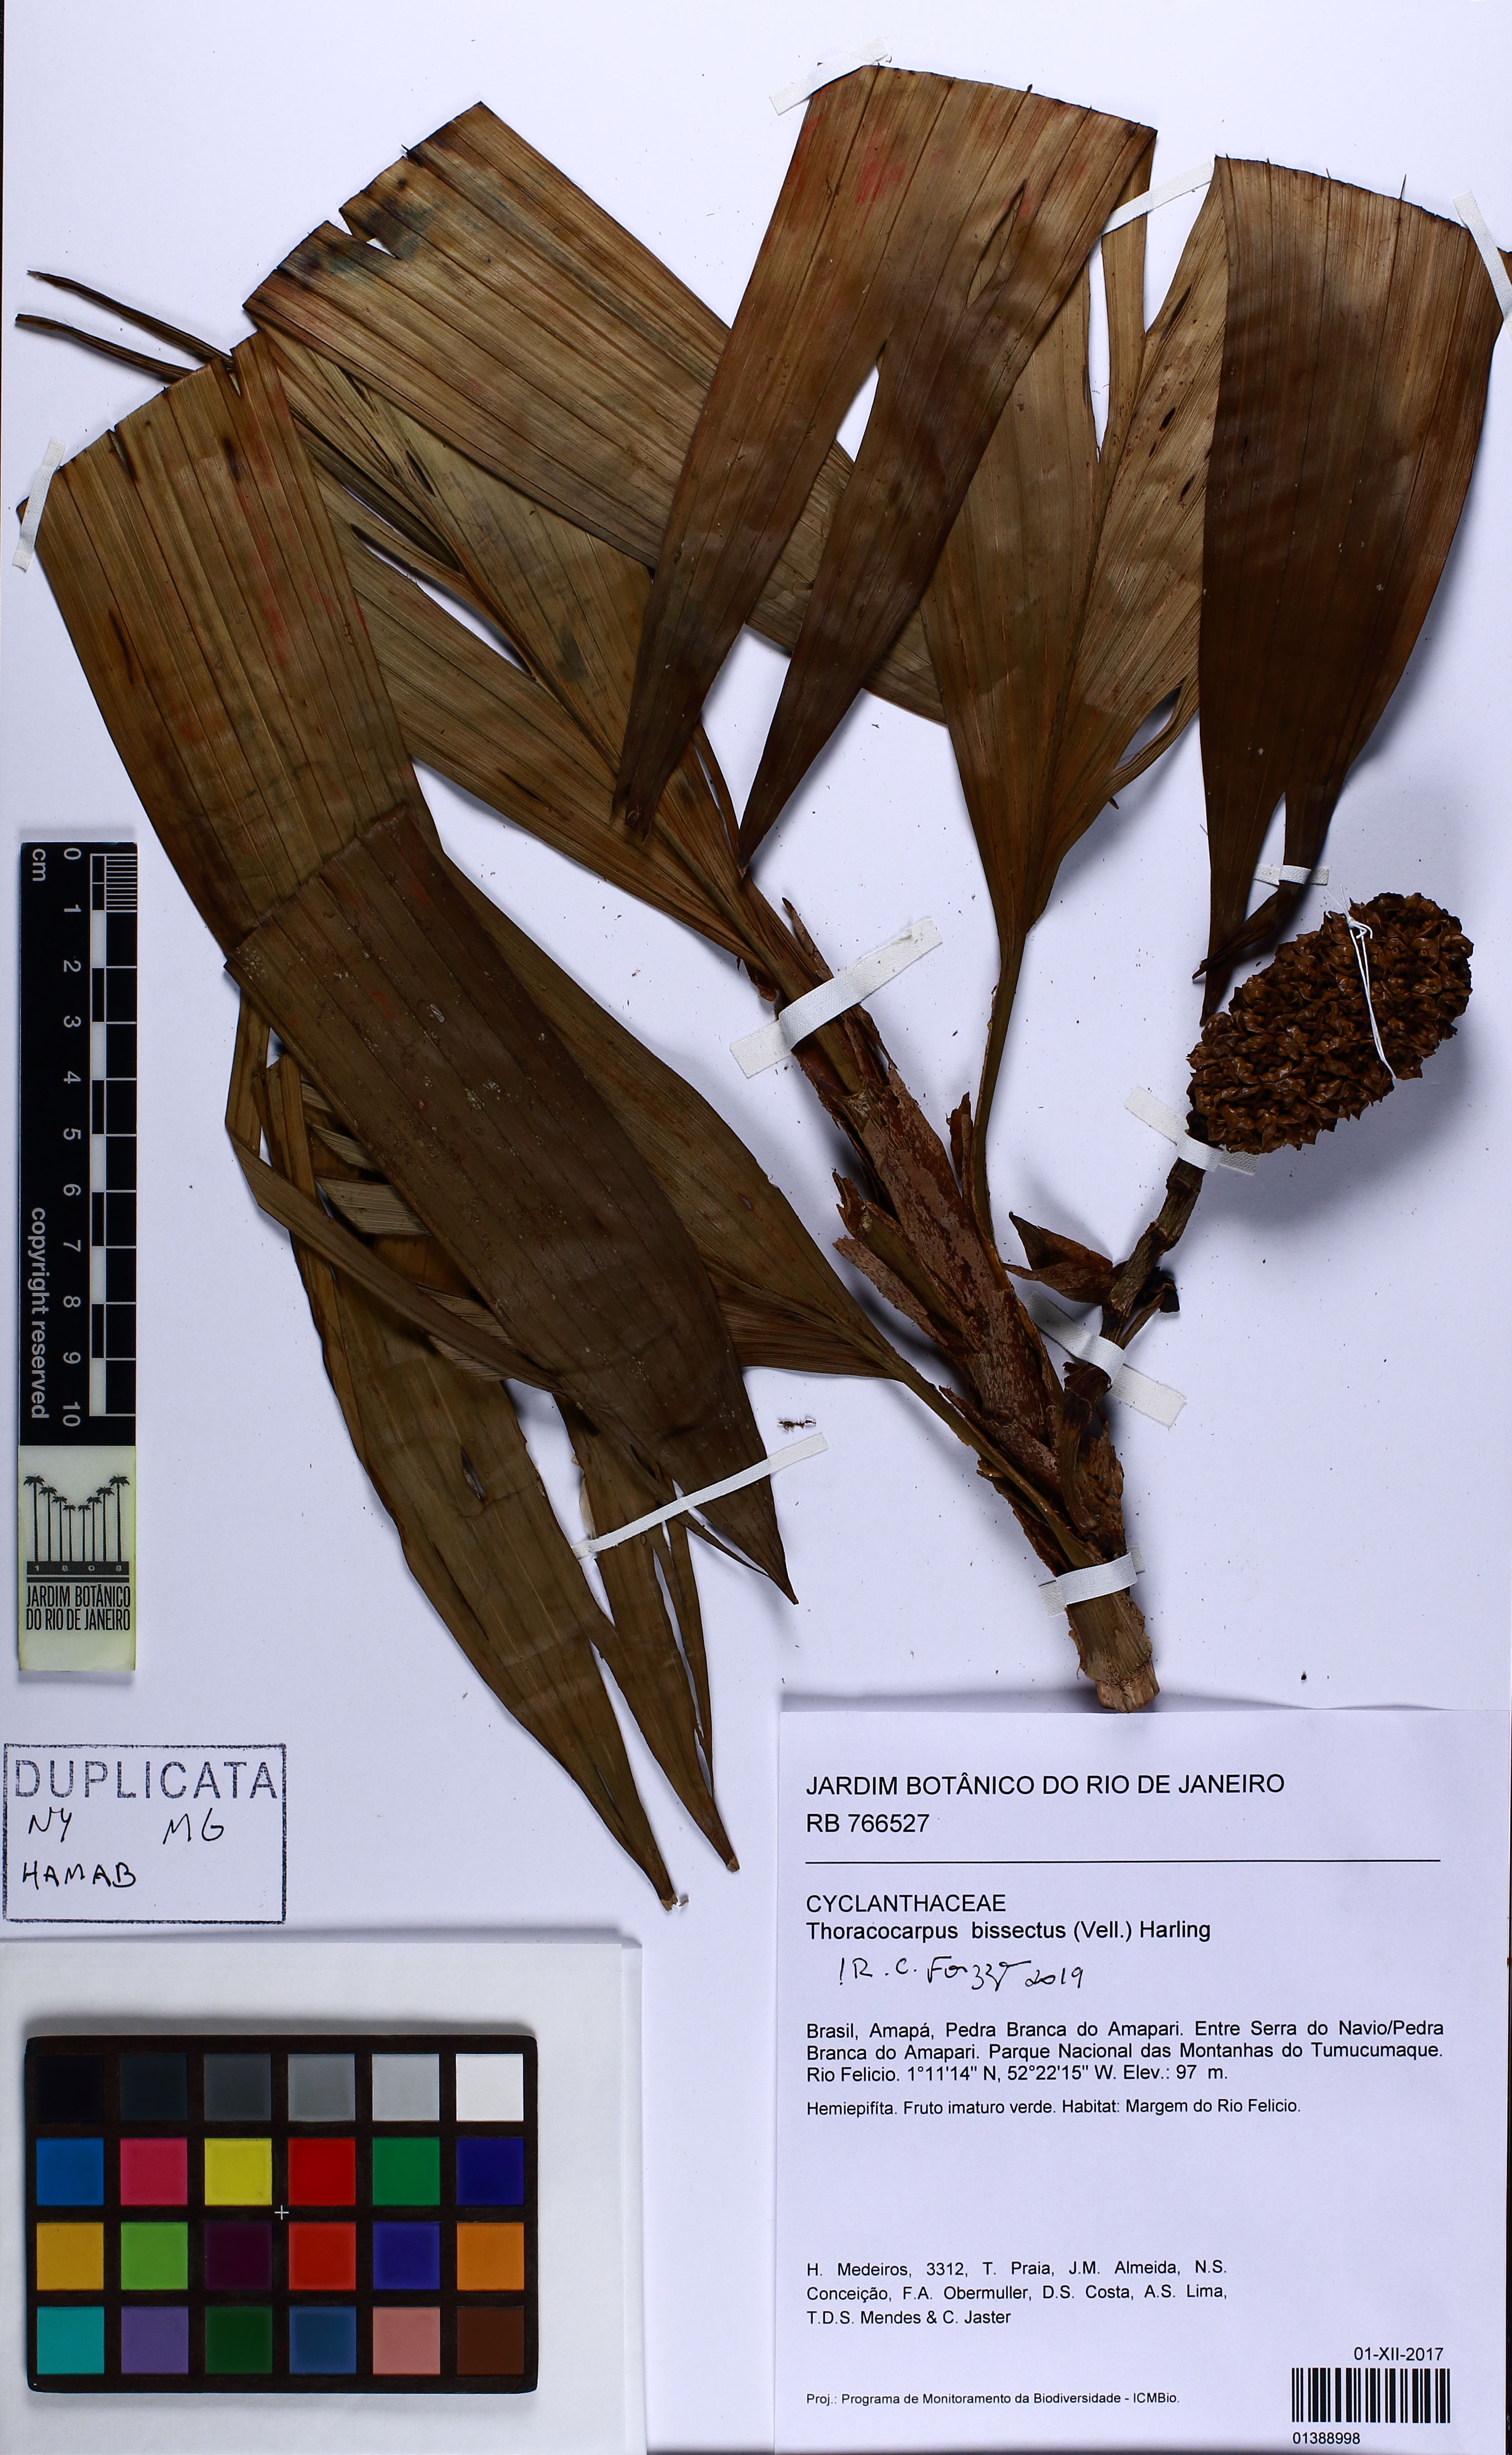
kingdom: Plantae
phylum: Tracheophyta
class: Liliopsida
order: Pandanales
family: Cyclanthaceae
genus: Thoracocarpus
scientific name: Thoracocarpus bissectus
